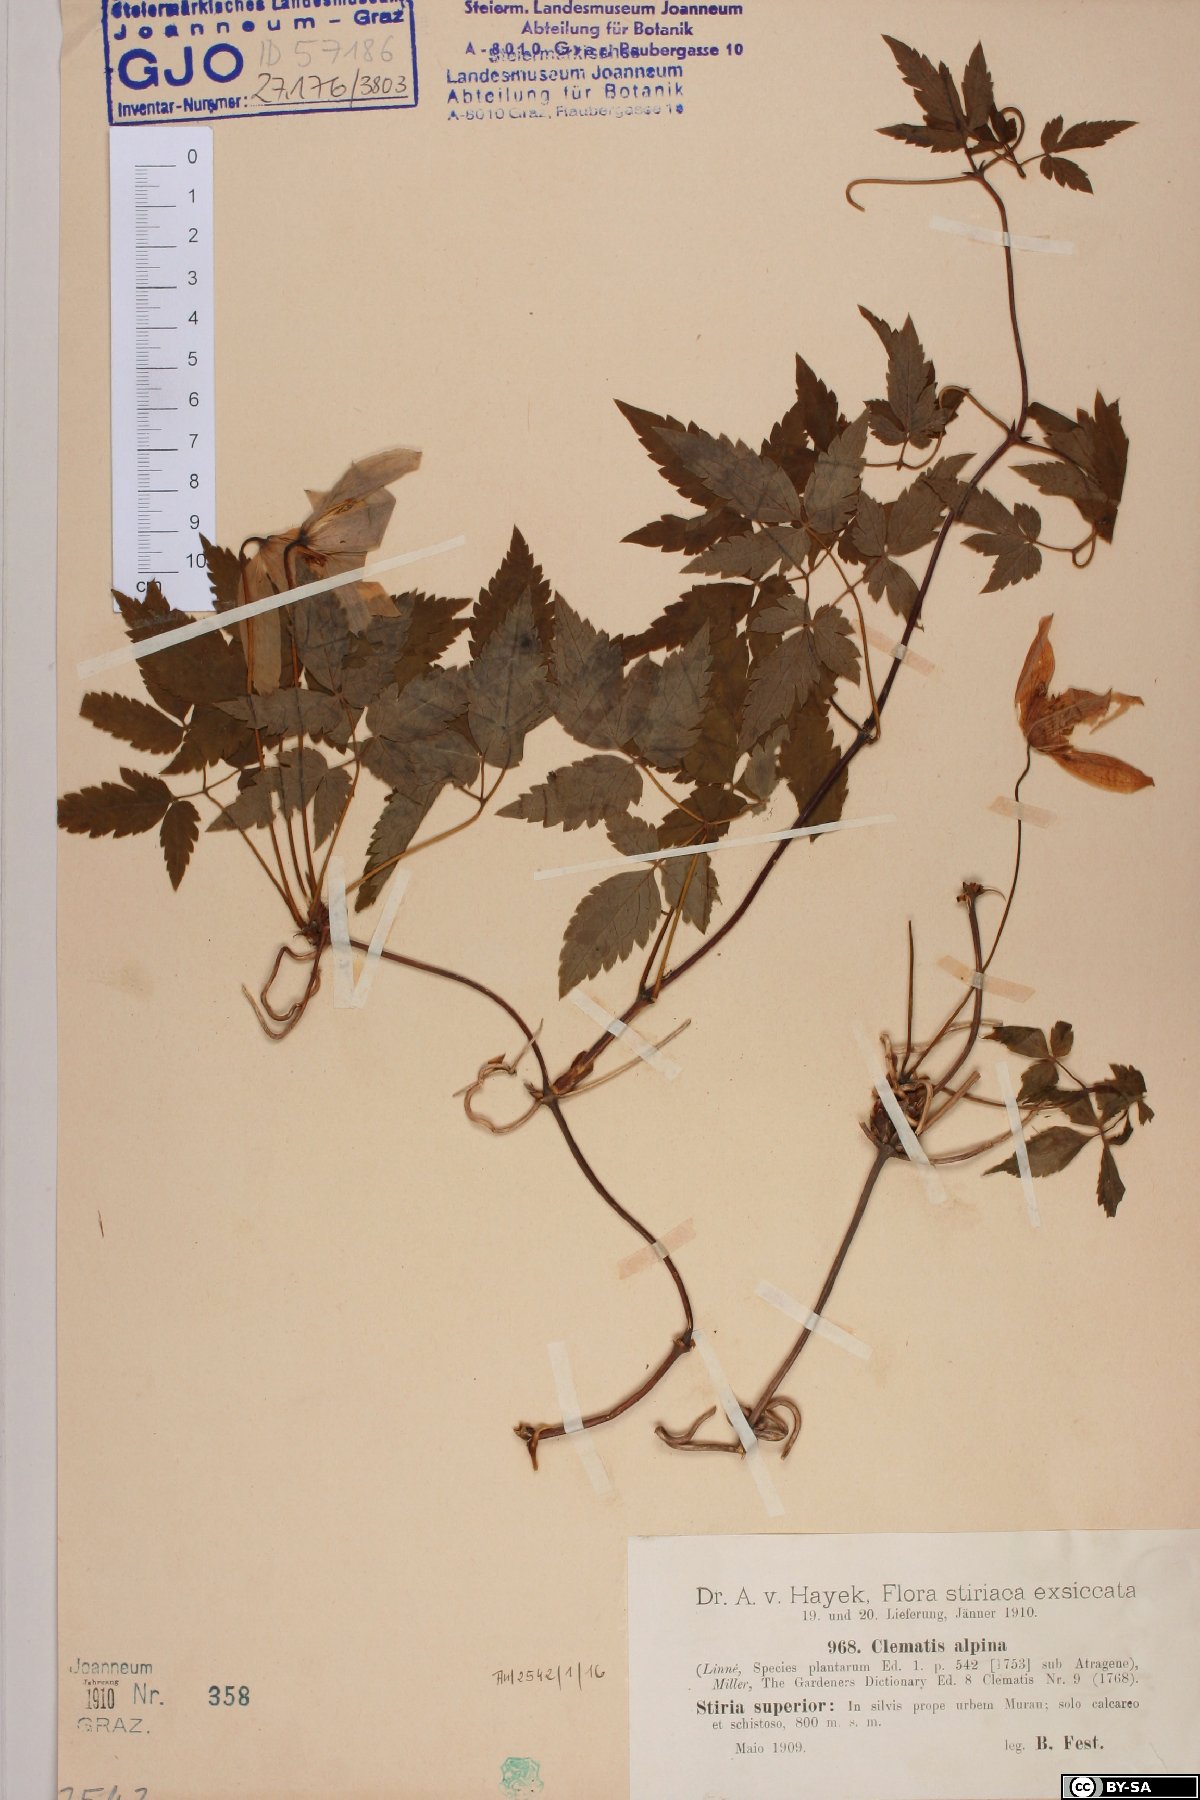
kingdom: Plantae
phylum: Tracheophyta
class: Magnoliopsida
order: Ranunculales
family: Ranunculaceae
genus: Clematis
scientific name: Clematis alpina
